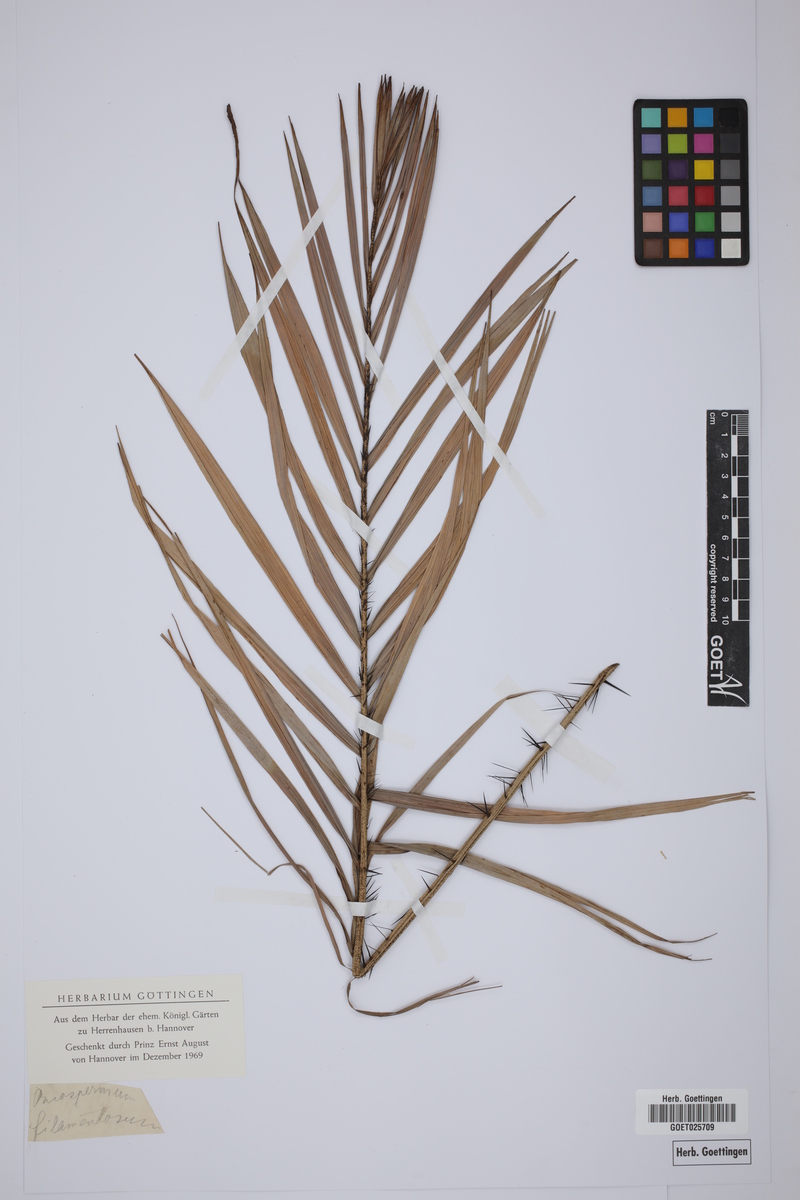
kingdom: Plantae
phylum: Tracheophyta
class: Liliopsida
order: Arecales
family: Arecaceae
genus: Oncosperma
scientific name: Oncosperma tigillarium
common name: Nibong
